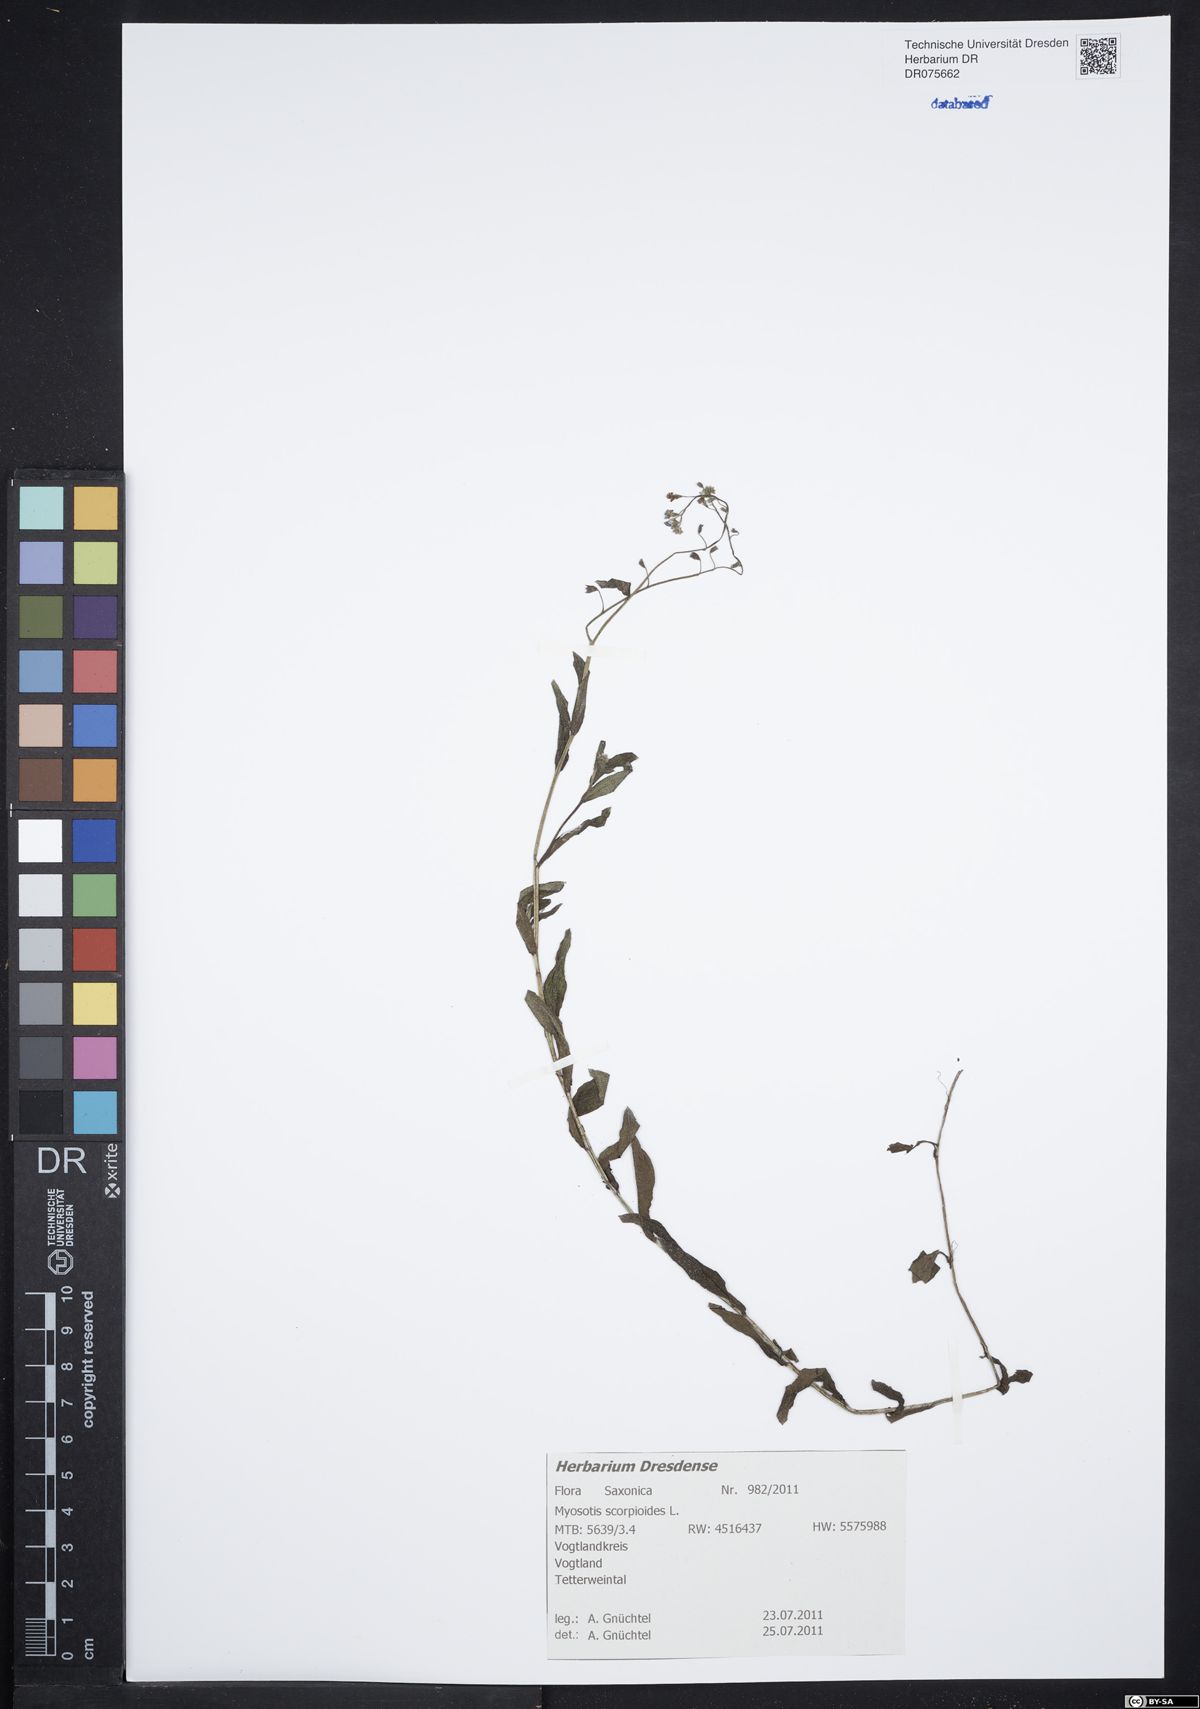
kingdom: Plantae
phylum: Tracheophyta
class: Magnoliopsida
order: Boraginales
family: Boraginaceae
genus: Myosotis
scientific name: Myosotis scorpioides
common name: Water forget-me-not
